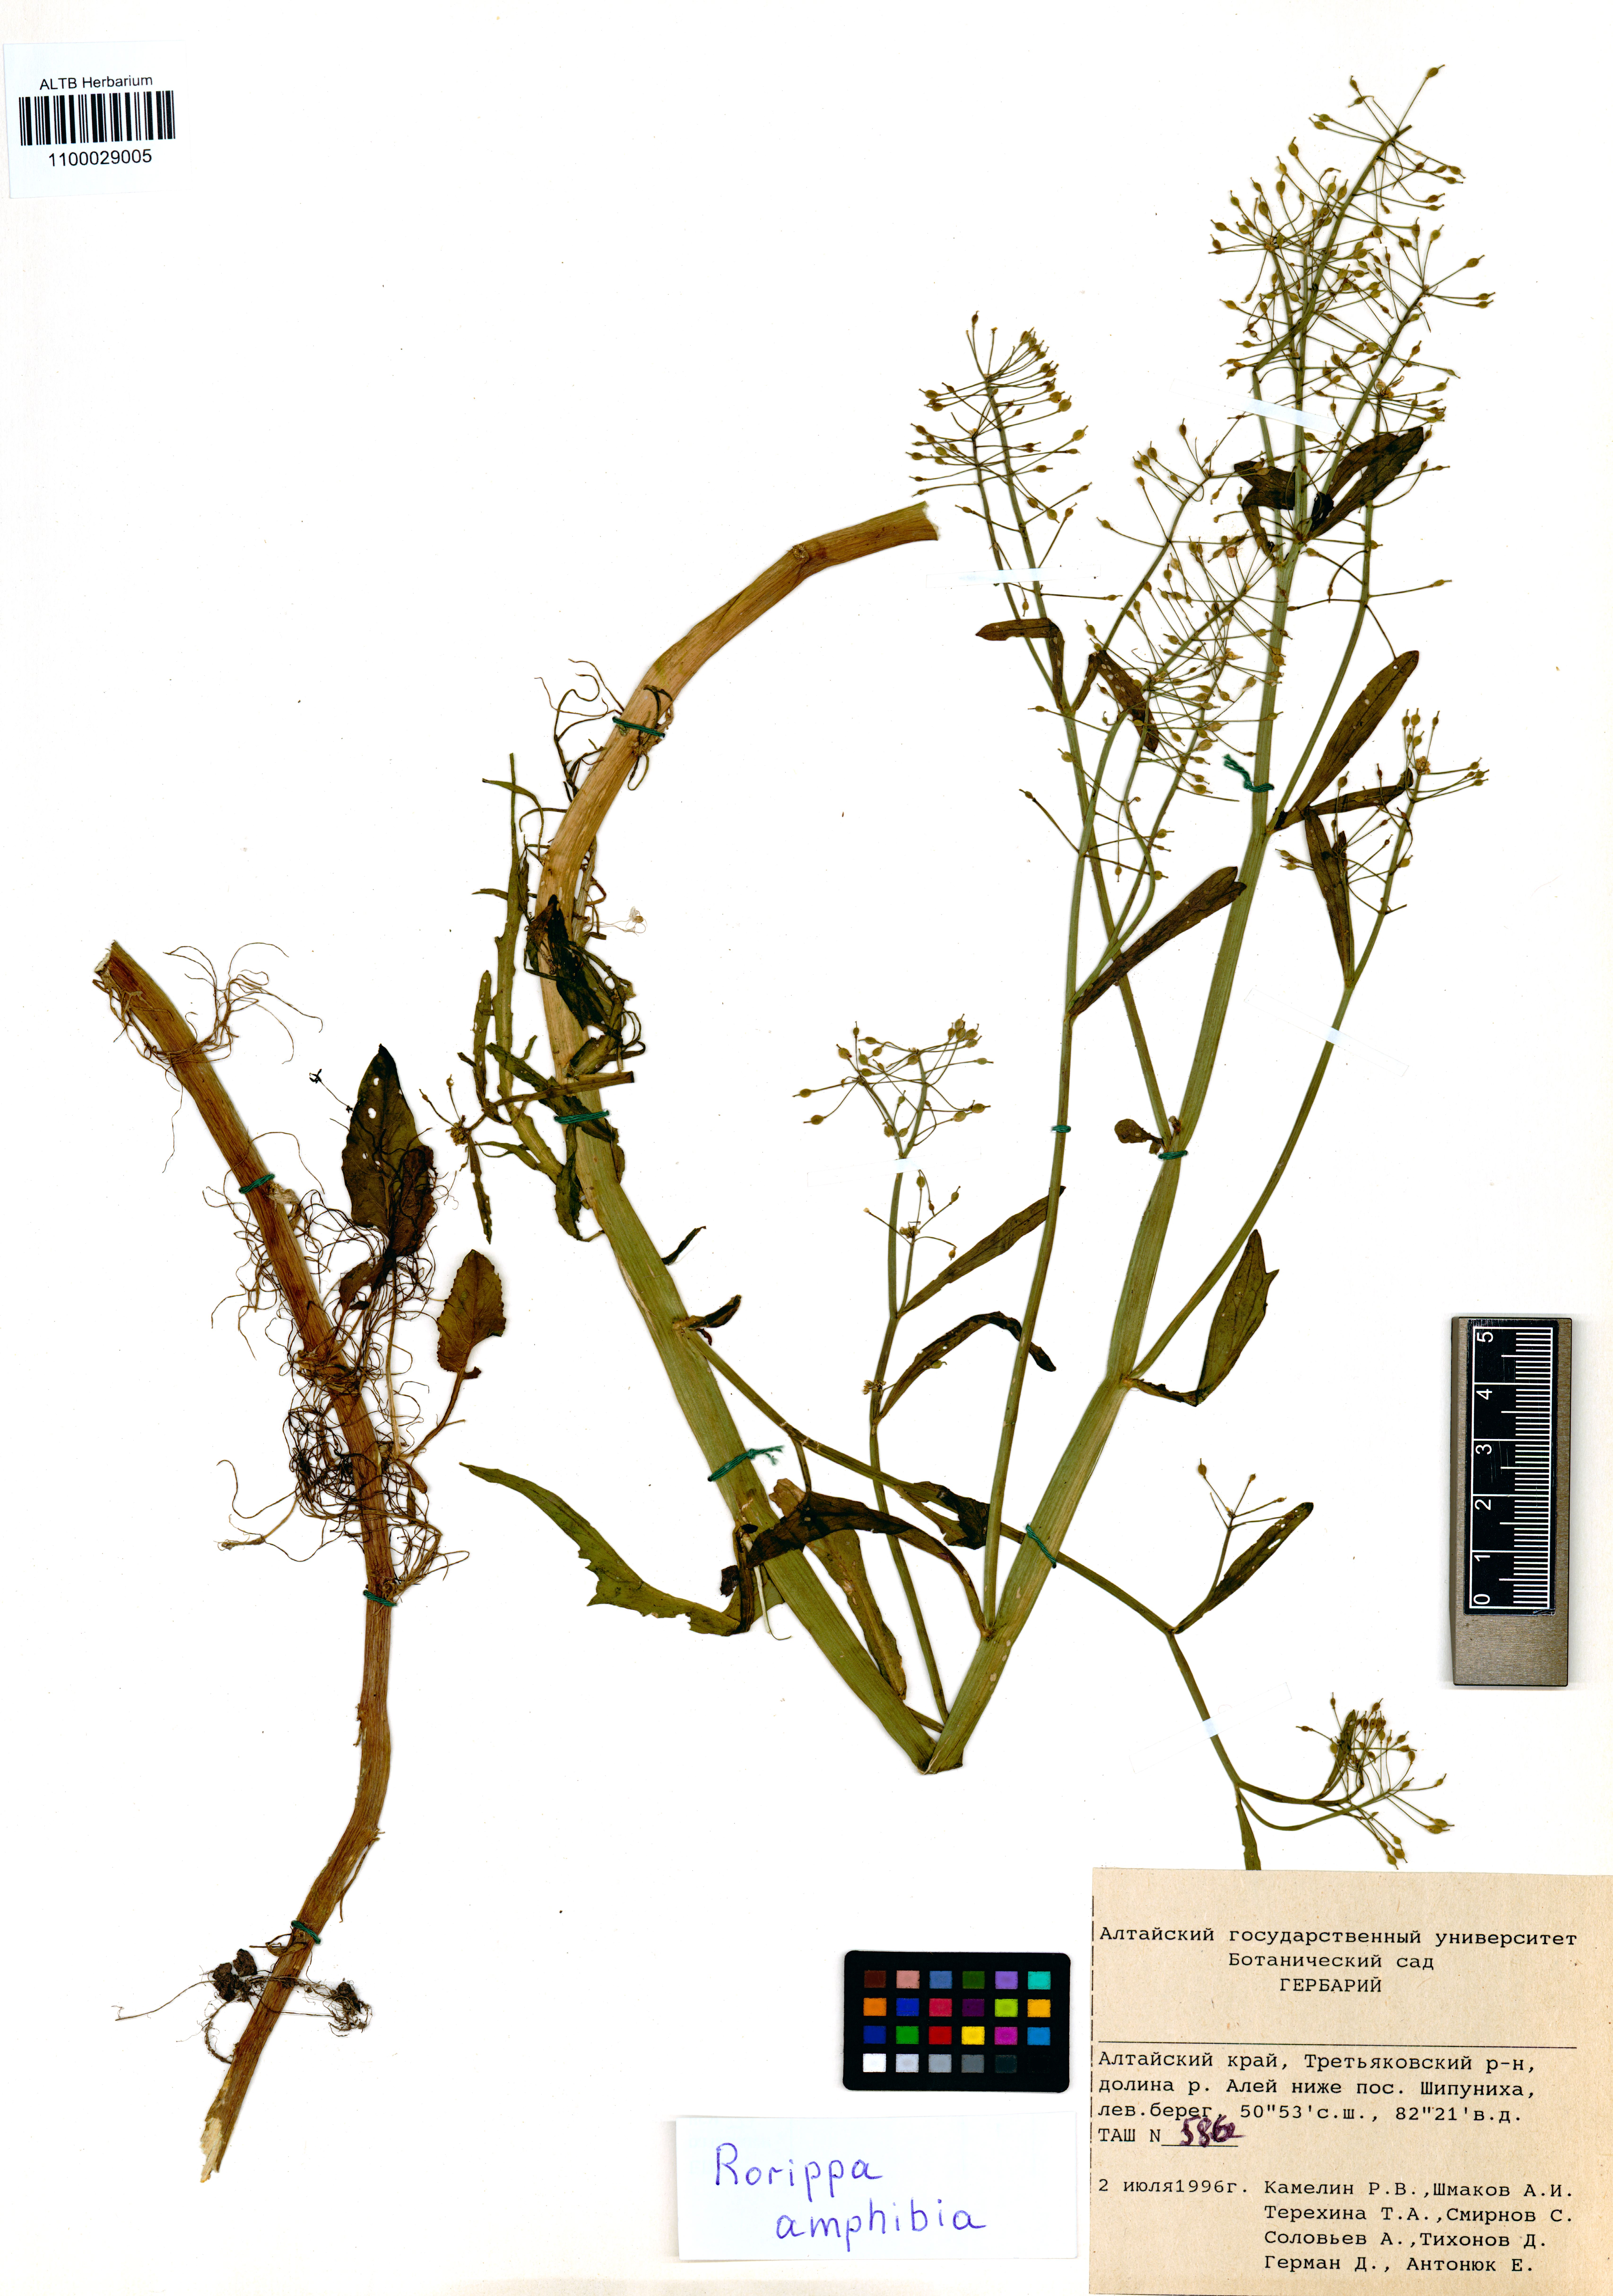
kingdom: Plantae
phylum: Tracheophyta
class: Magnoliopsida
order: Brassicales
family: Brassicaceae
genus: Rorippa
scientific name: Rorippa amphibia
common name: Great yellow-cress
